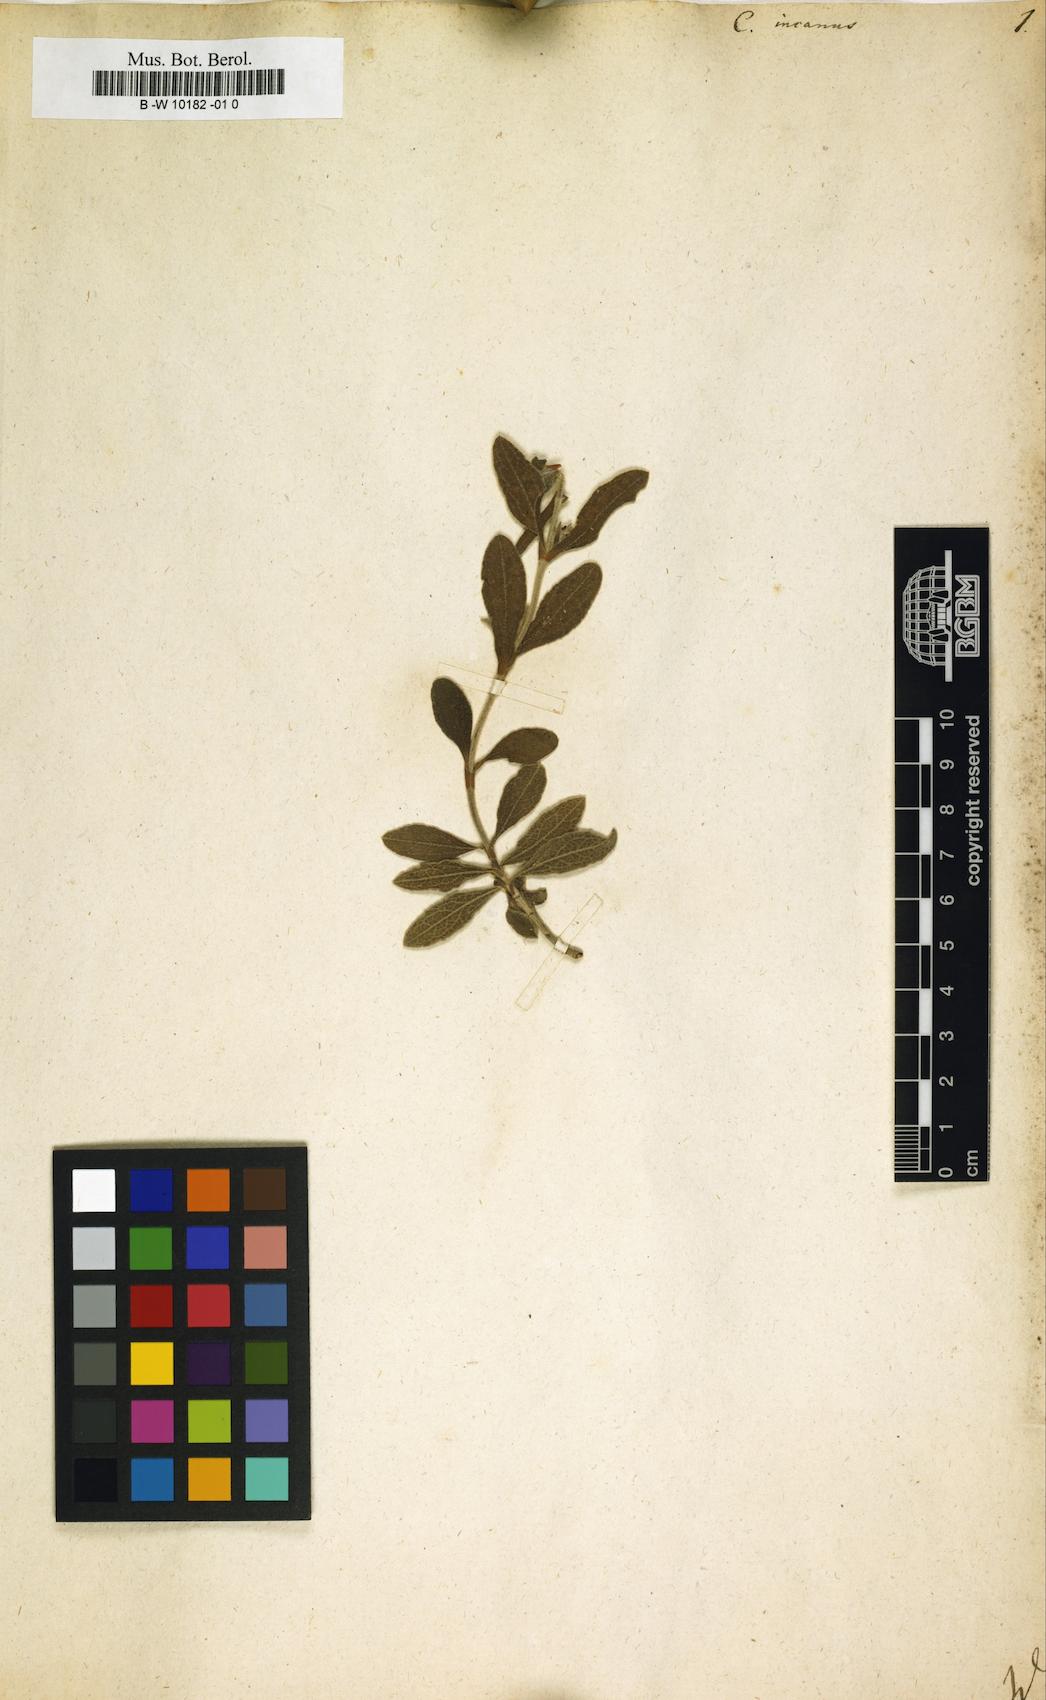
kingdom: Plantae
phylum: Tracheophyta
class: Magnoliopsida
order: Malvales
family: Cistaceae
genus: Cistus
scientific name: Cistus incanus
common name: Hairy rockrose
